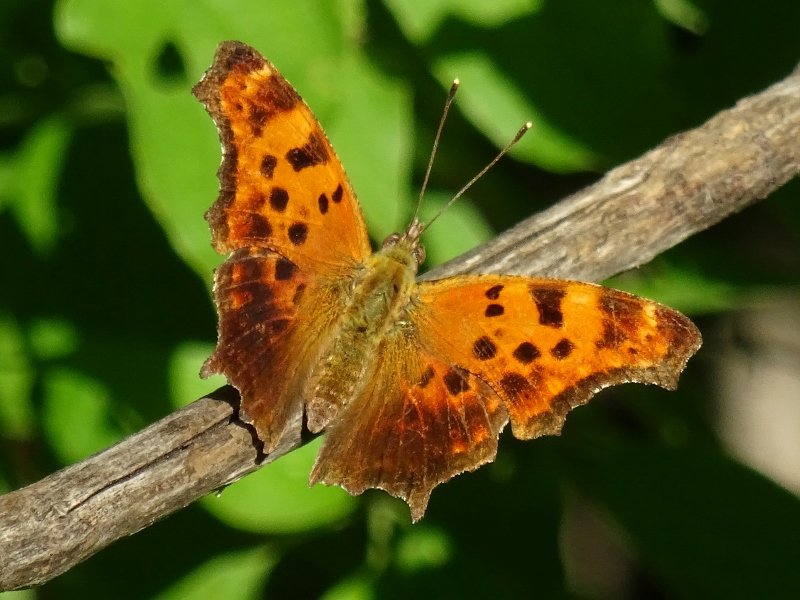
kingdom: Animalia
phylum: Arthropoda
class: Insecta
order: Lepidoptera
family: Nymphalidae
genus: Polygonia
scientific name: Polygonia comma
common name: Eastern Comma
